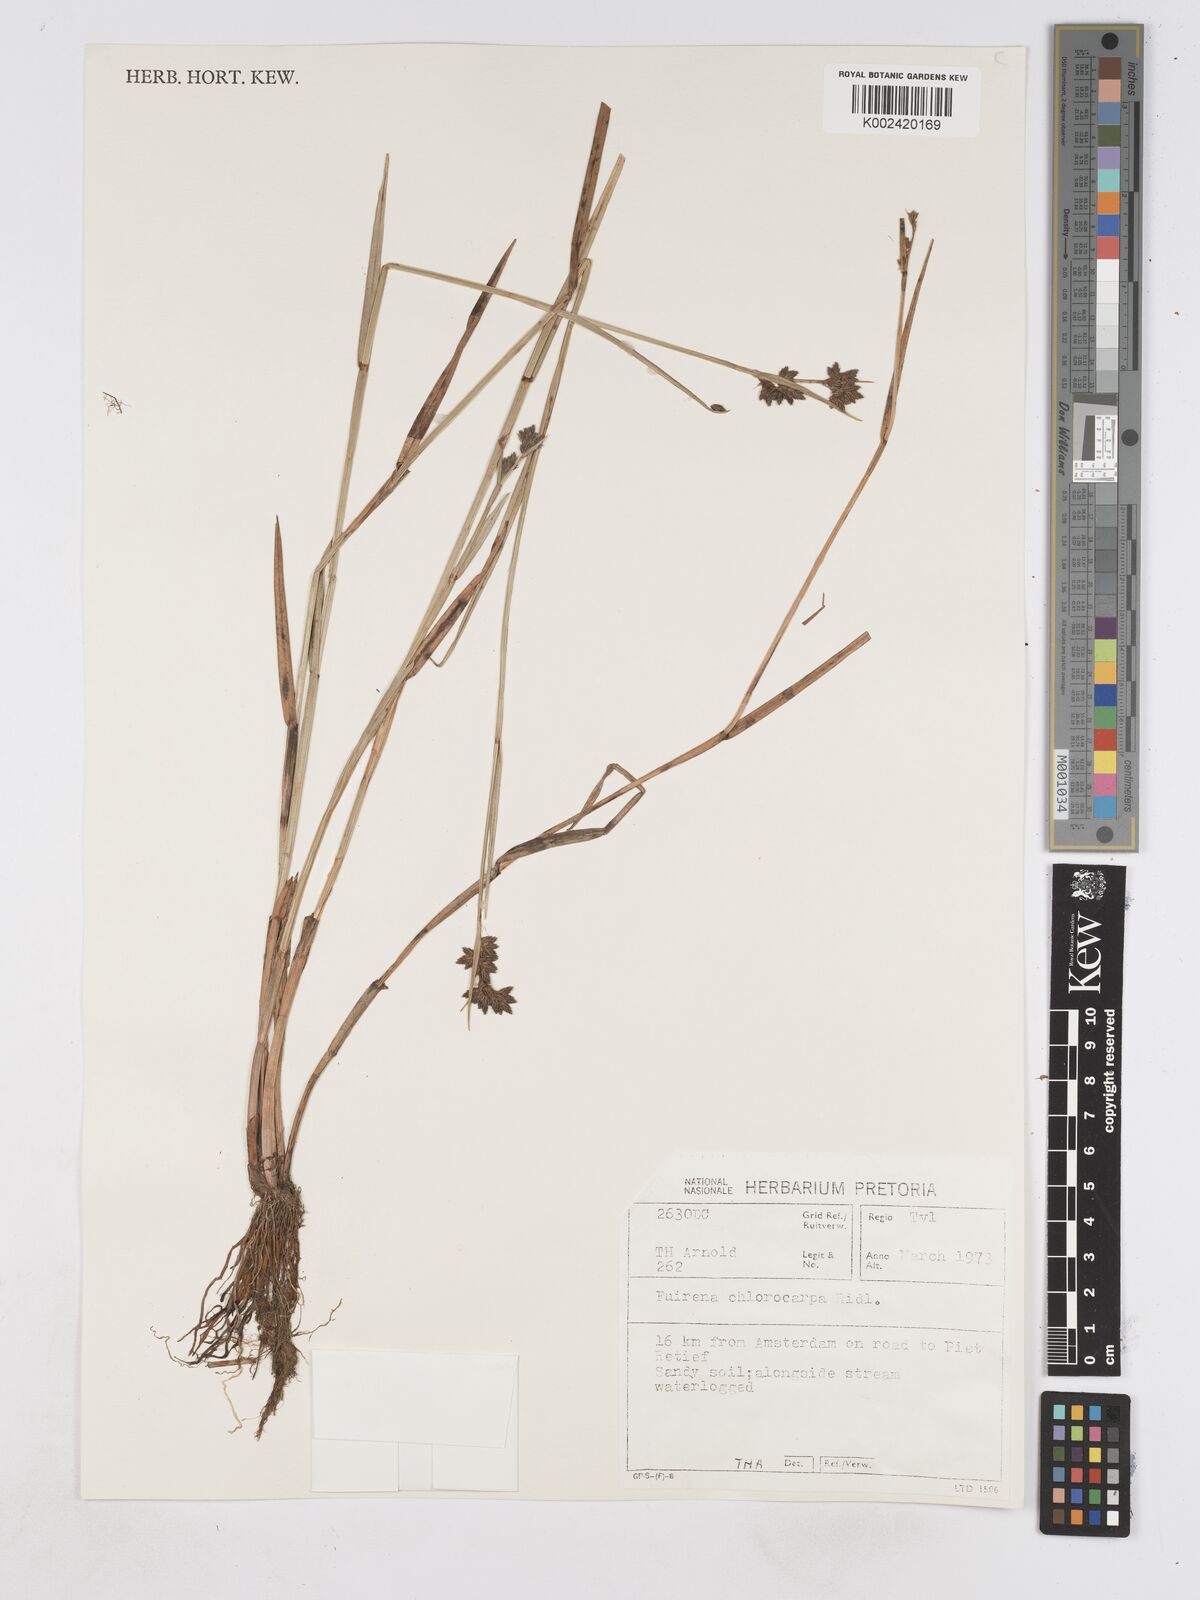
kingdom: Plantae
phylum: Tracheophyta
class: Liliopsida
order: Poales
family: Cyperaceae
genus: Fuirena
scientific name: Fuirena stricta
